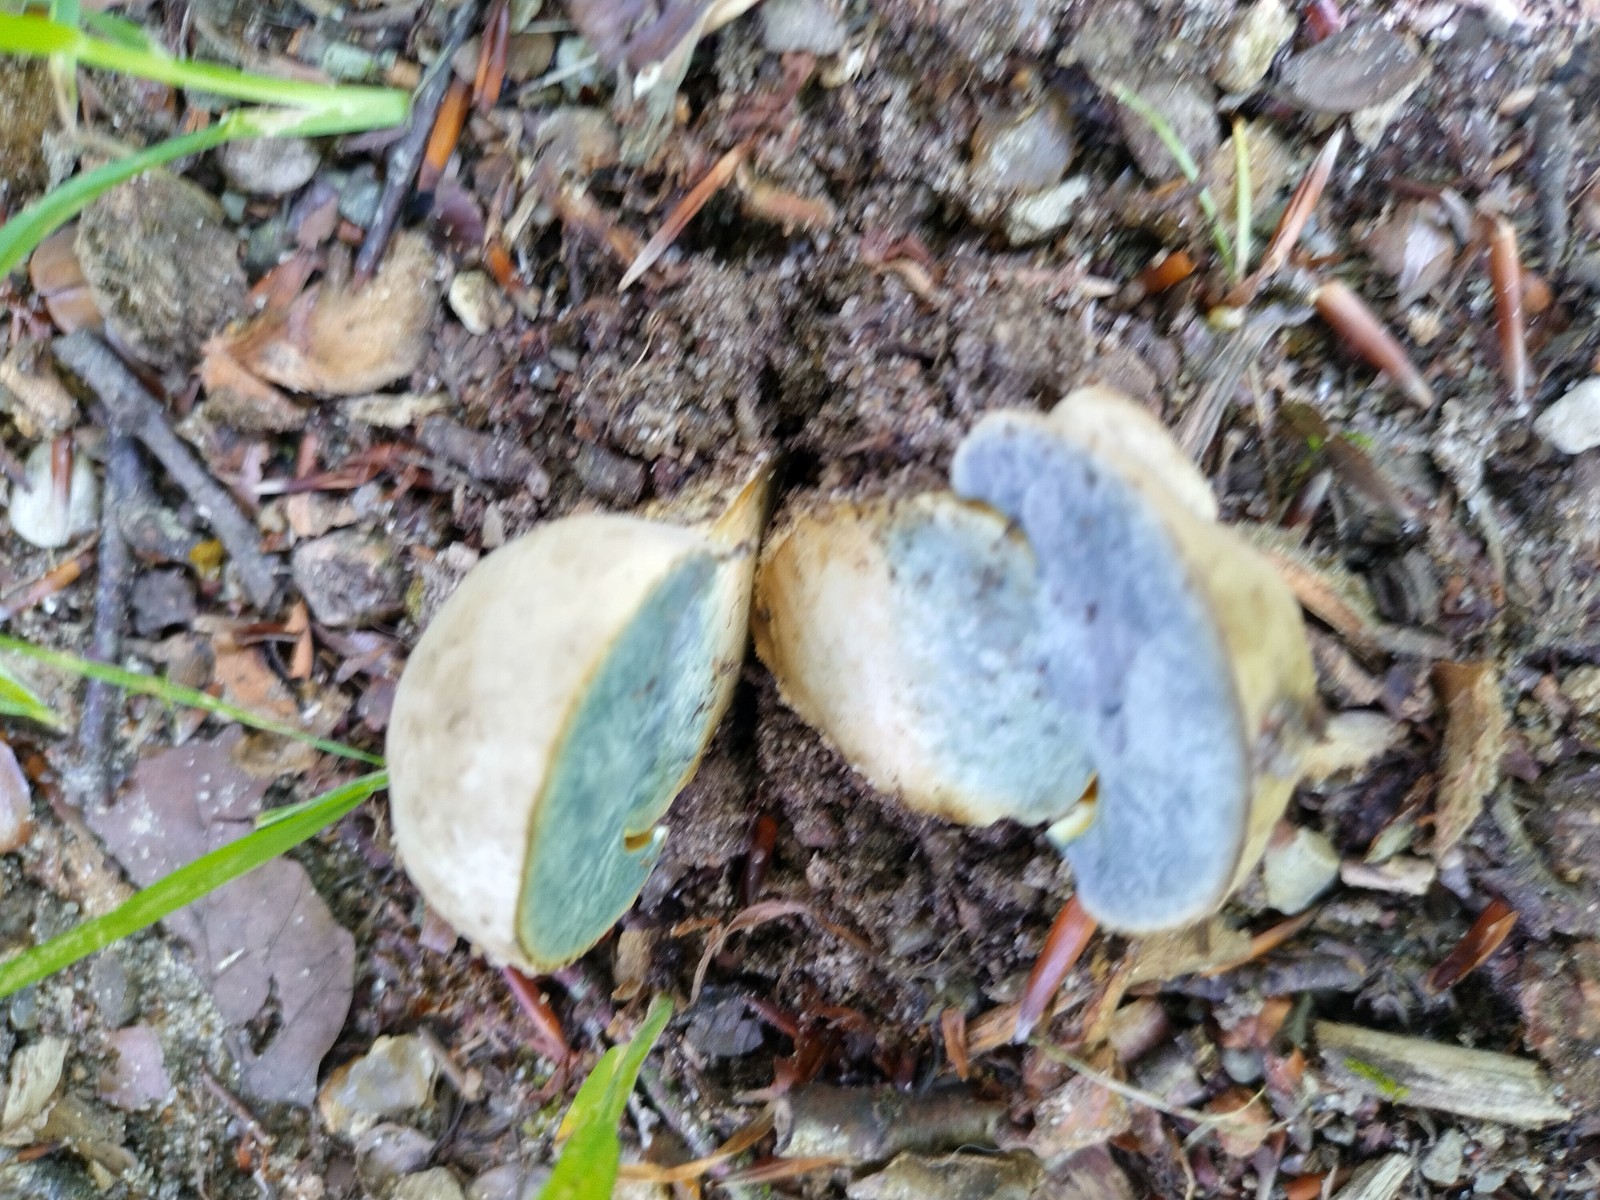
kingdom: Fungi
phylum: Basidiomycota
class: Agaricomycetes
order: Boletales
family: Boletaceae
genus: Caloboletus
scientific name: Caloboletus radicans
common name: rod-rørhat
